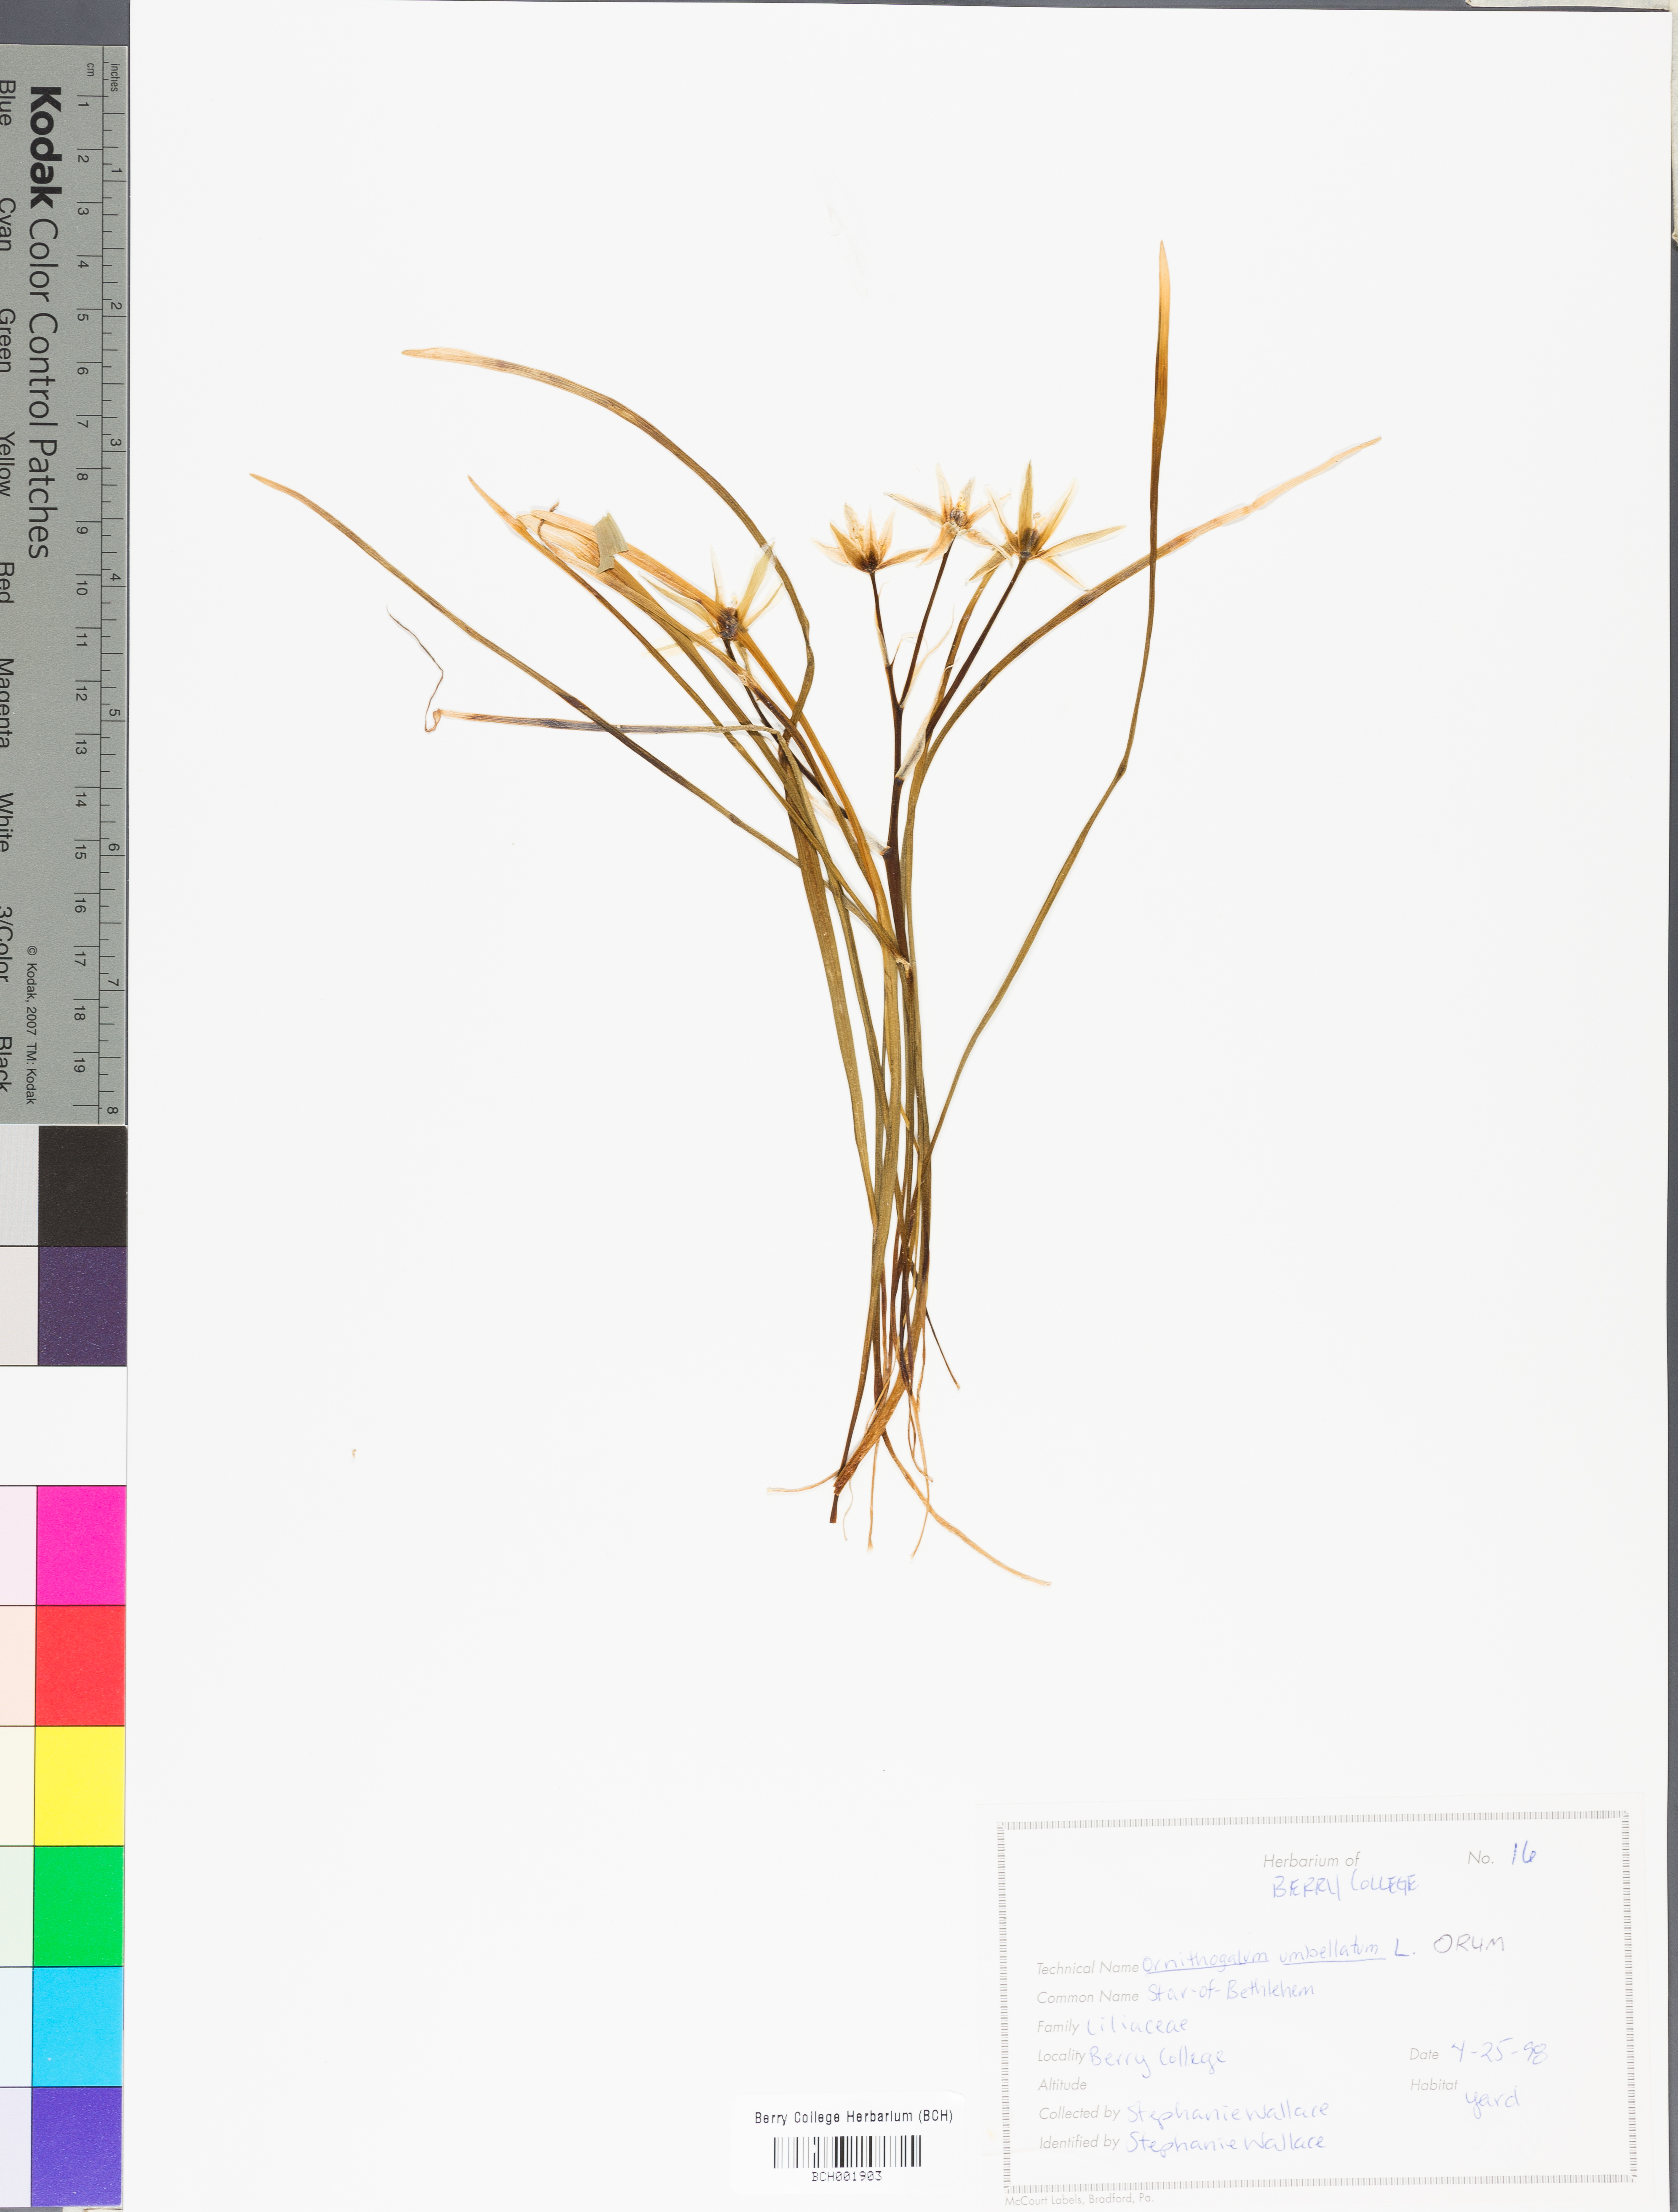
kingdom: Plantae
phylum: Tracheophyta
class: Liliopsida
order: Asparagales
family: Asparagaceae
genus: Ornithogalum
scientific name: Ornithogalum umbellatum
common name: Garden star-of-bethlehem
